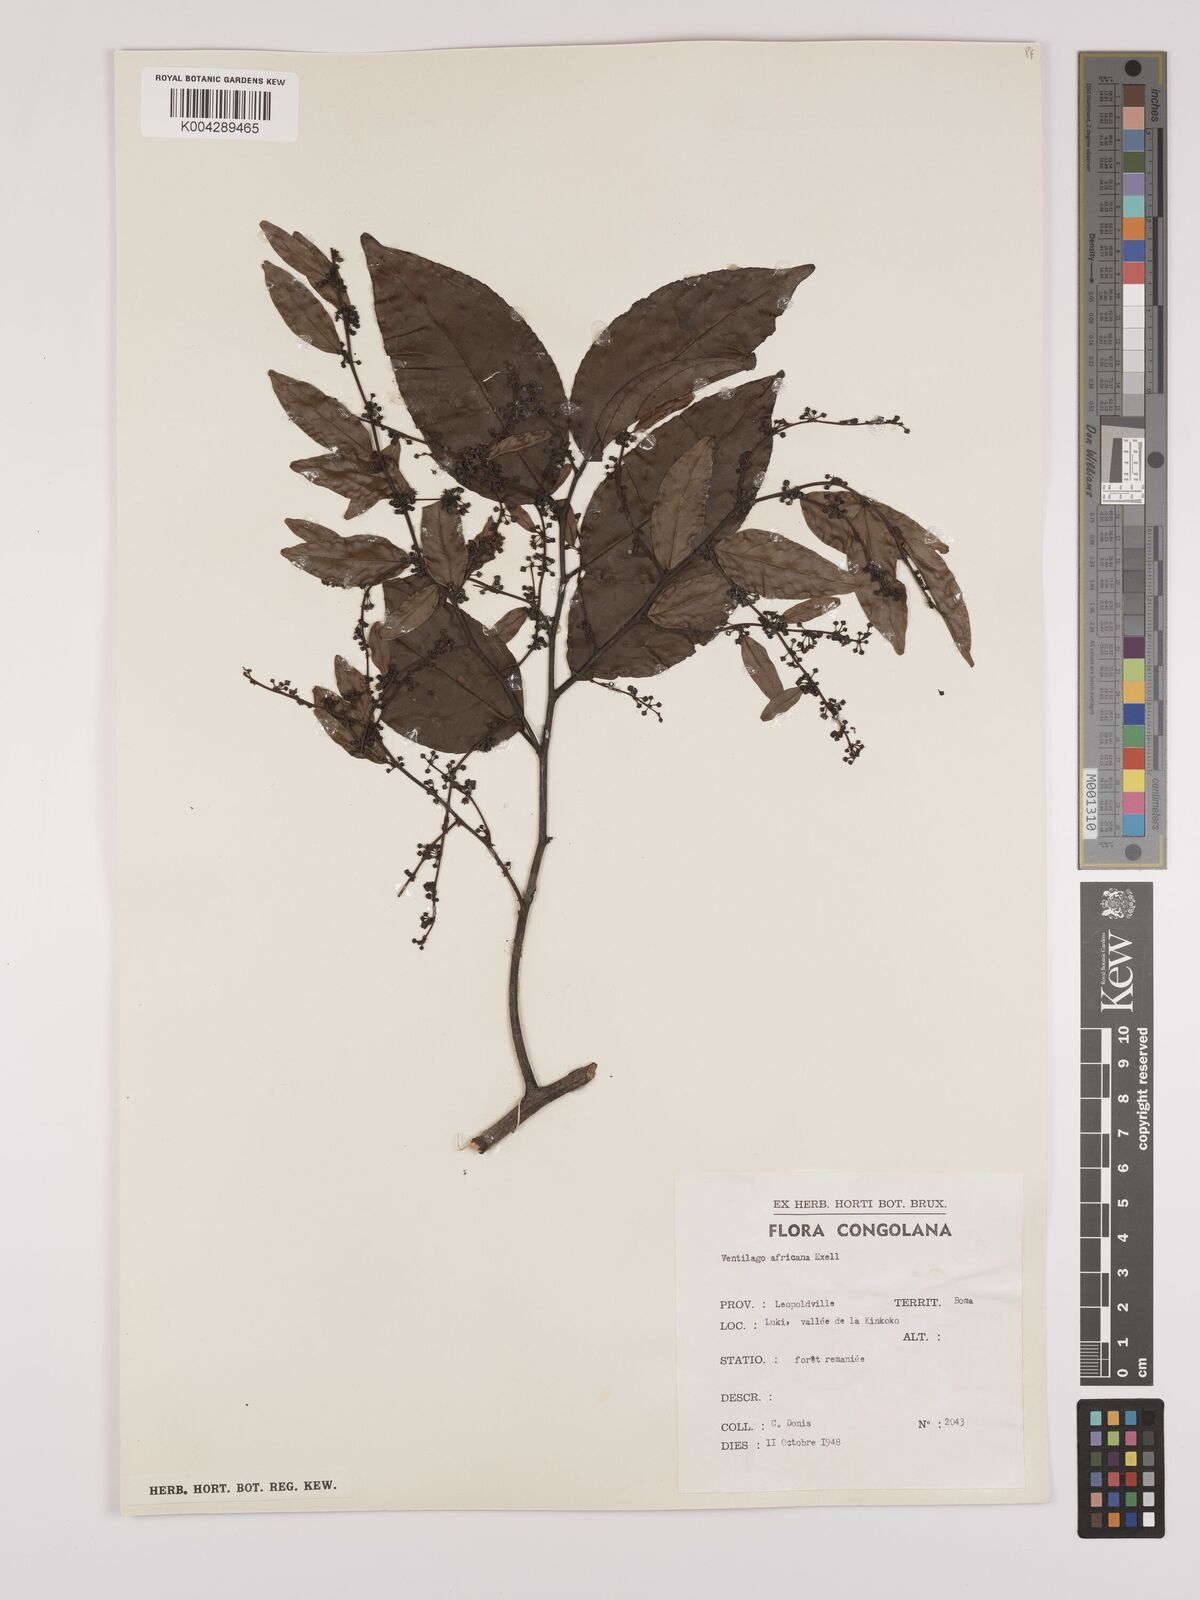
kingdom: Plantae
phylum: Tracheophyta
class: Magnoliopsida
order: Rosales
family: Rhamnaceae
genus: Ventilago
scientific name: Ventilago africana
